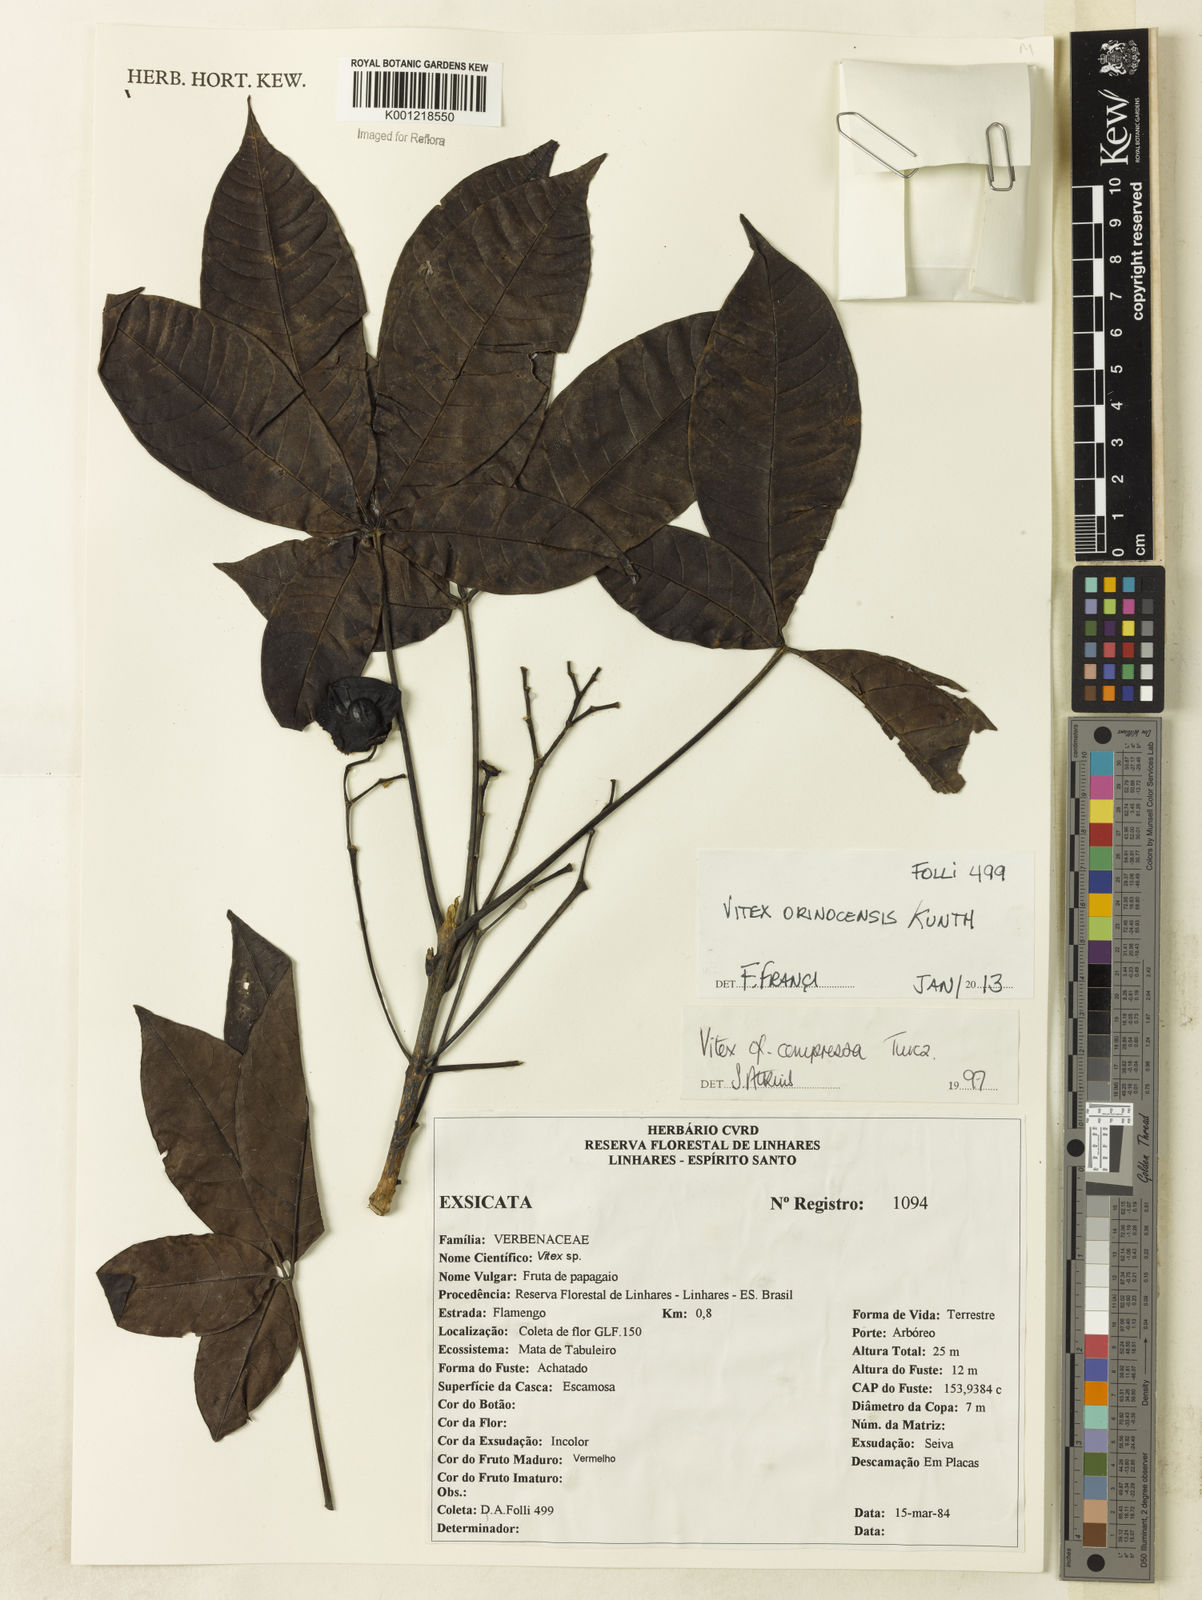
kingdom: Plantae
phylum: Tracheophyta
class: Magnoliopsida
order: Lamiales
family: Lamiaceae
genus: Vitex
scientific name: Vitex orinocensis
